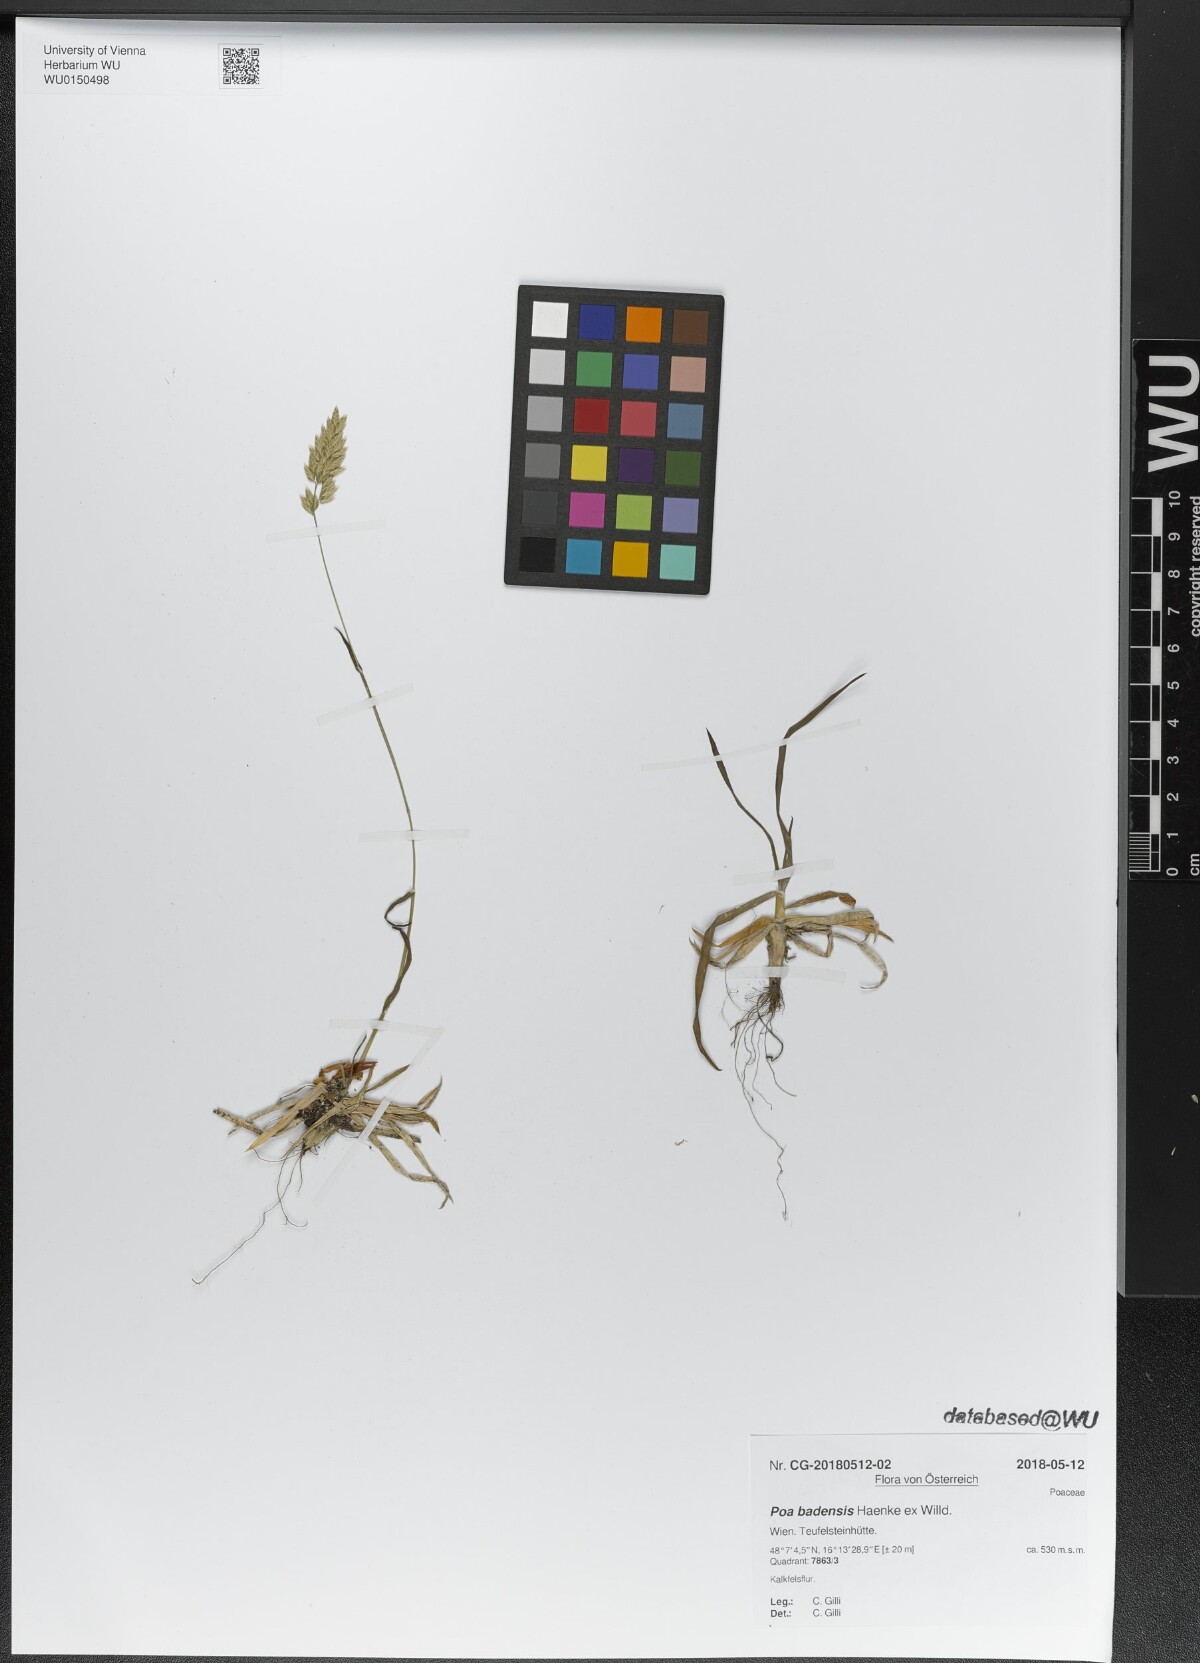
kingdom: Plantae
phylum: Tracheophyta
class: Liliopsida
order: Poales
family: Poaceae
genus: Poa
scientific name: Poa badensis
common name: Baden's bluegrass
